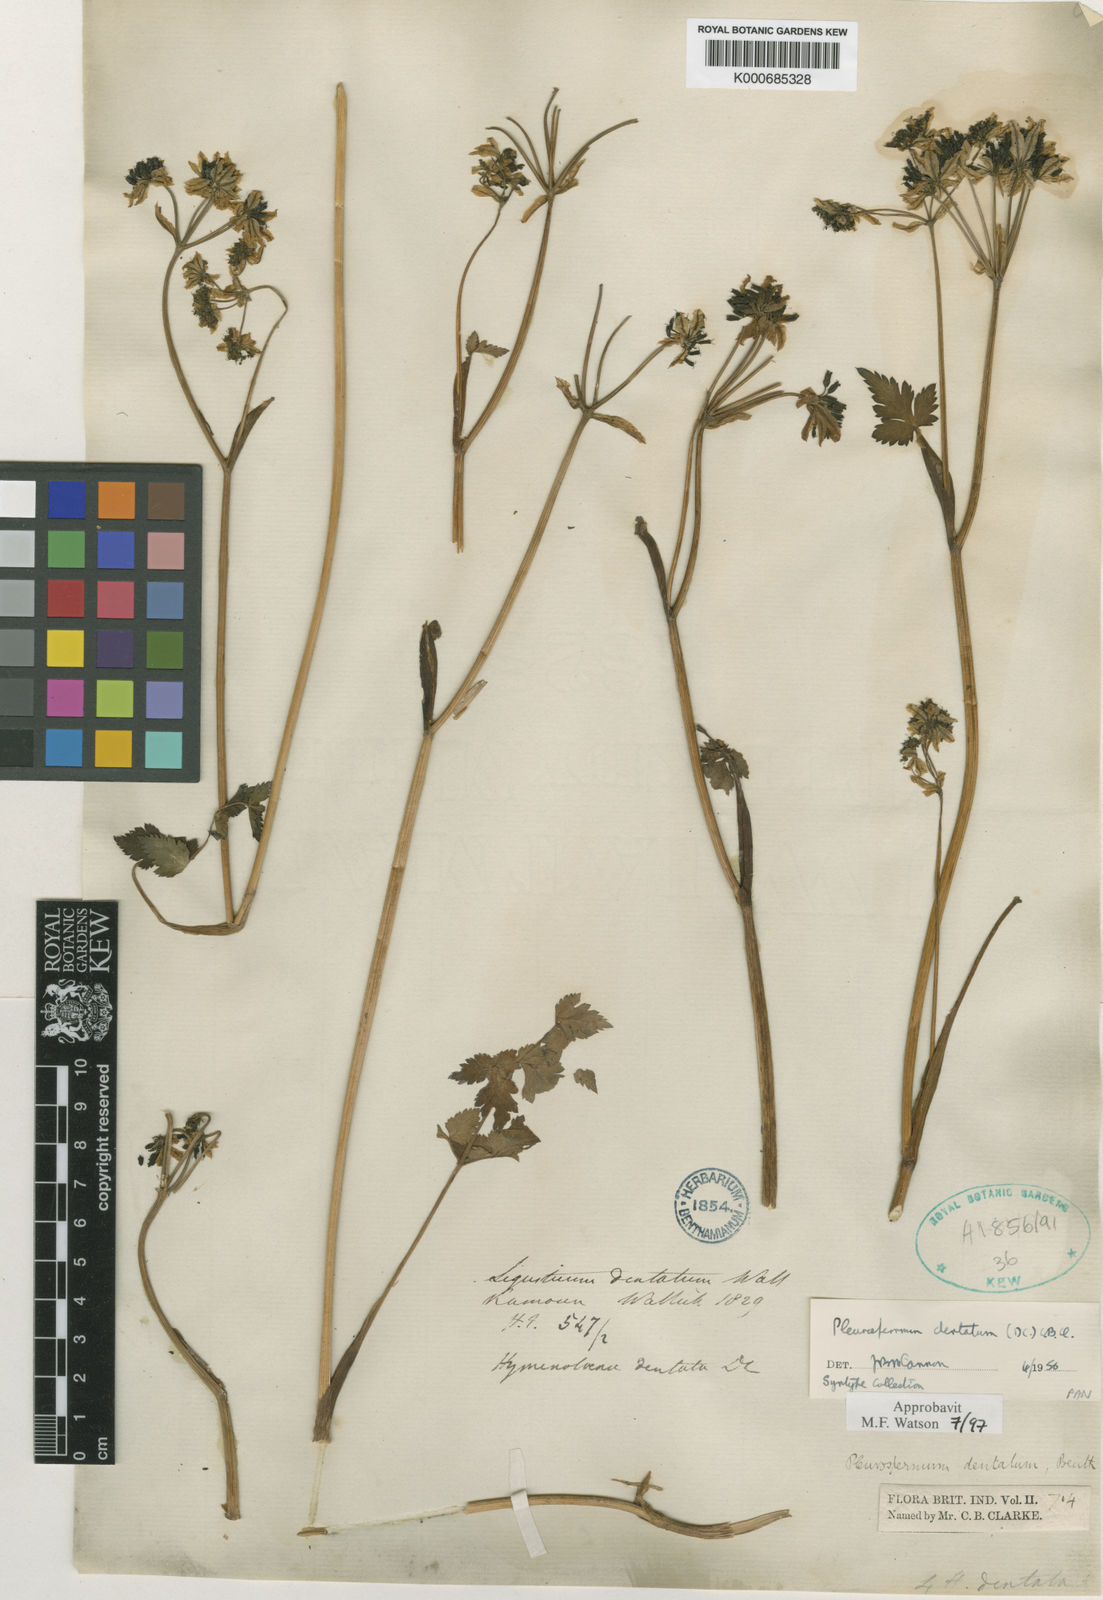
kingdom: Plantae
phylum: Tracheophyta
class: Magnoliopsida
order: Apiales
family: Apiaceae
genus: Hymenidium
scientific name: Hymenidium dentatum
